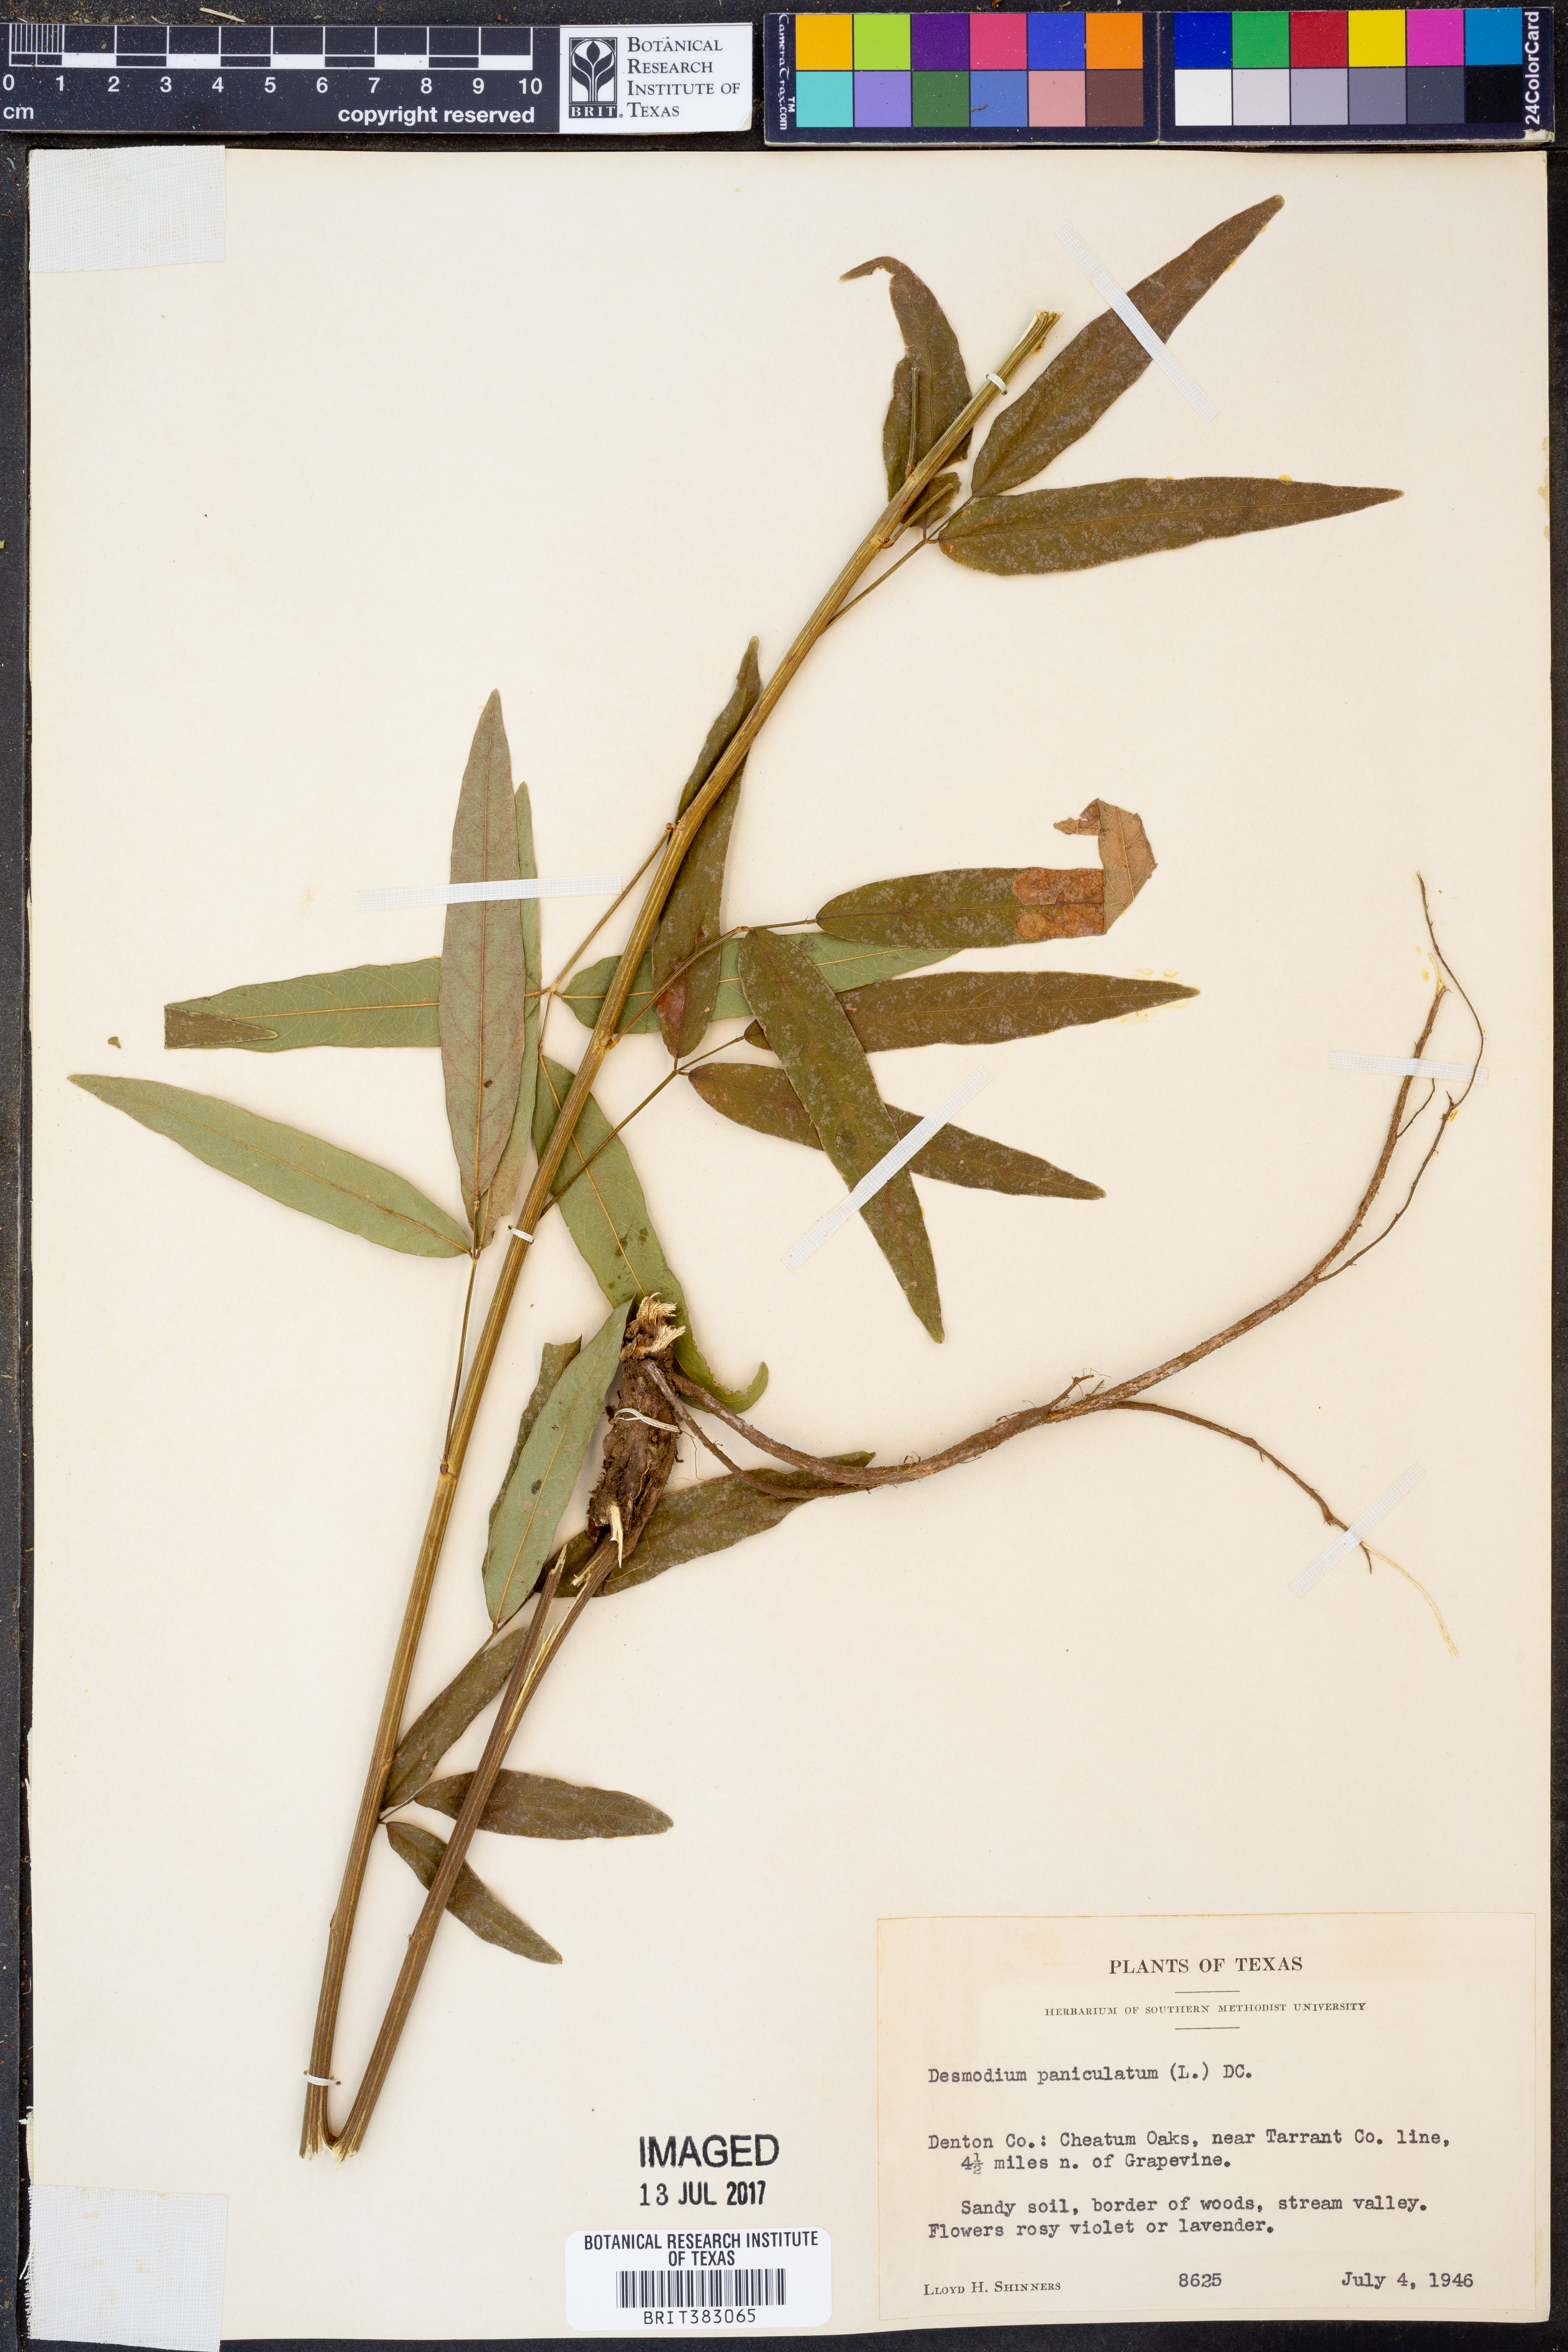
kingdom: Plantae
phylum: Tracheophyta
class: Magnoliopsida
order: Fabales
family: Fabaceae
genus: Desmodium
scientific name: Desmodium paniculatum
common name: Panicled tick-clover
